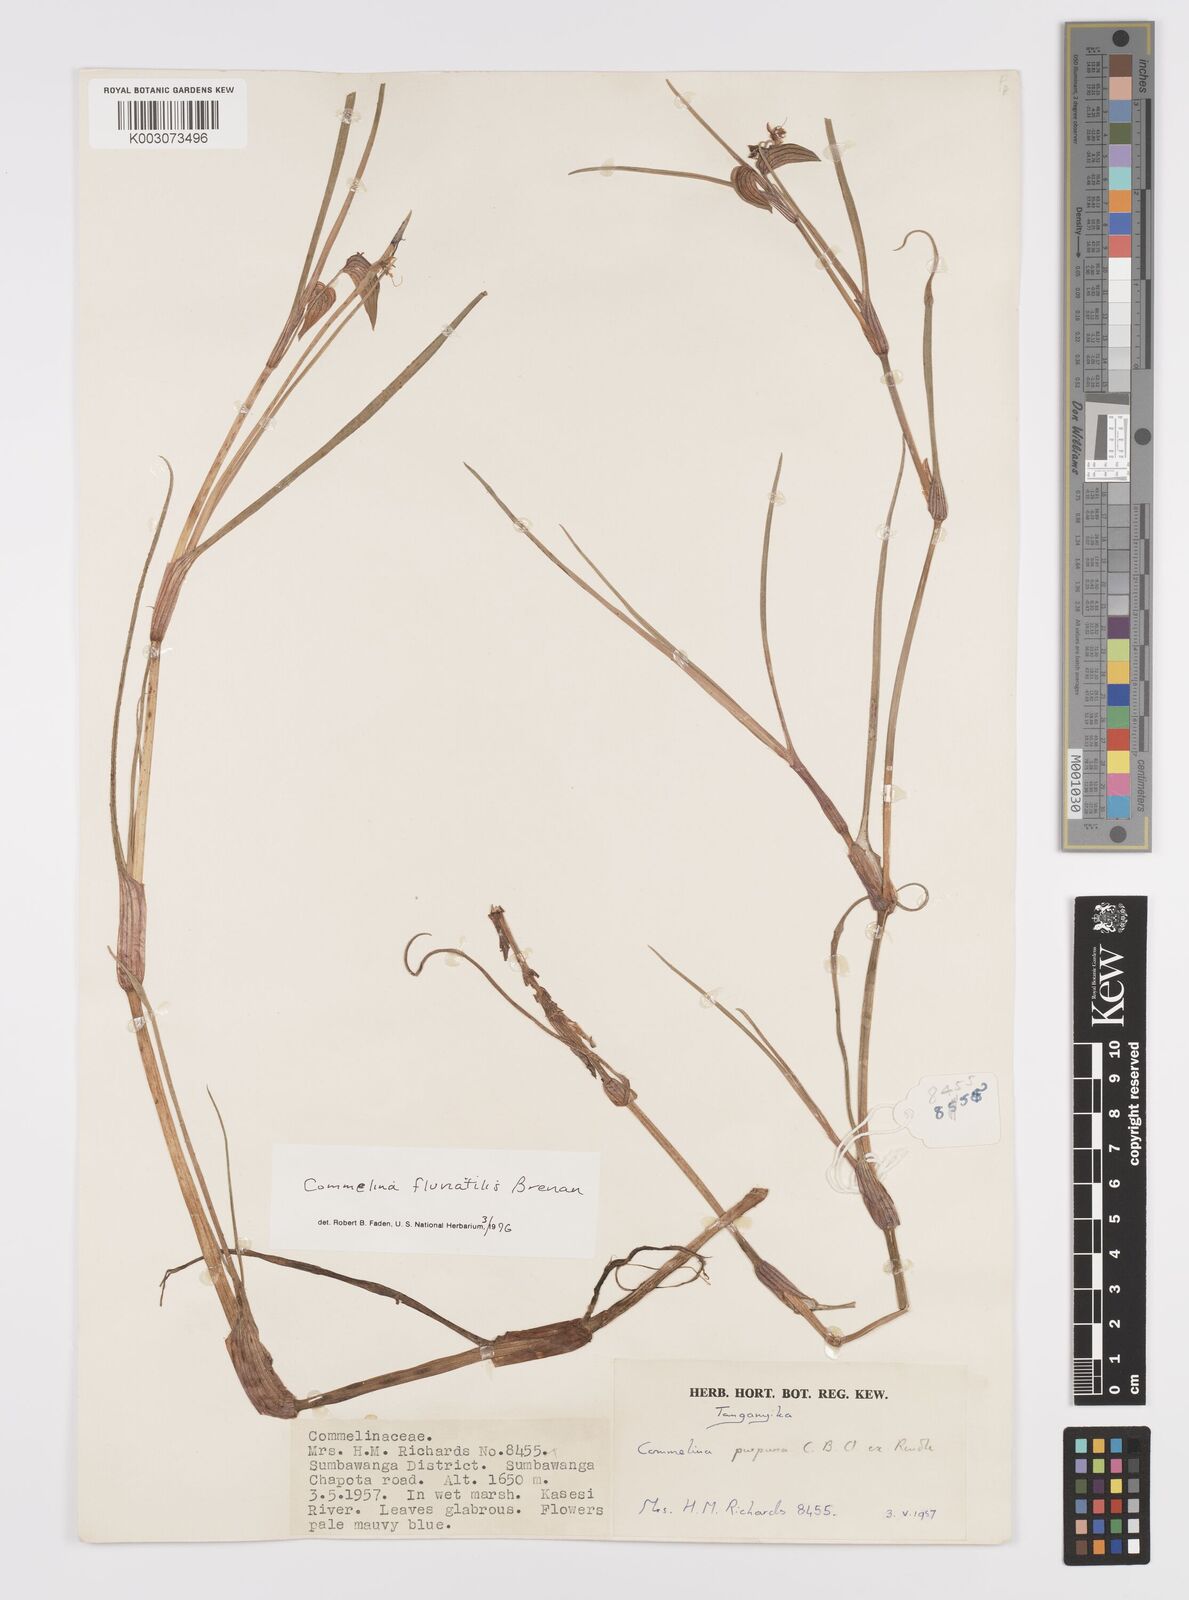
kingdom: Plantae
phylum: Tracheophyta
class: Liliopsida
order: Commelinales
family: Commelinaceae
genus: Commelina
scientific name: Commelina fluviatilis
